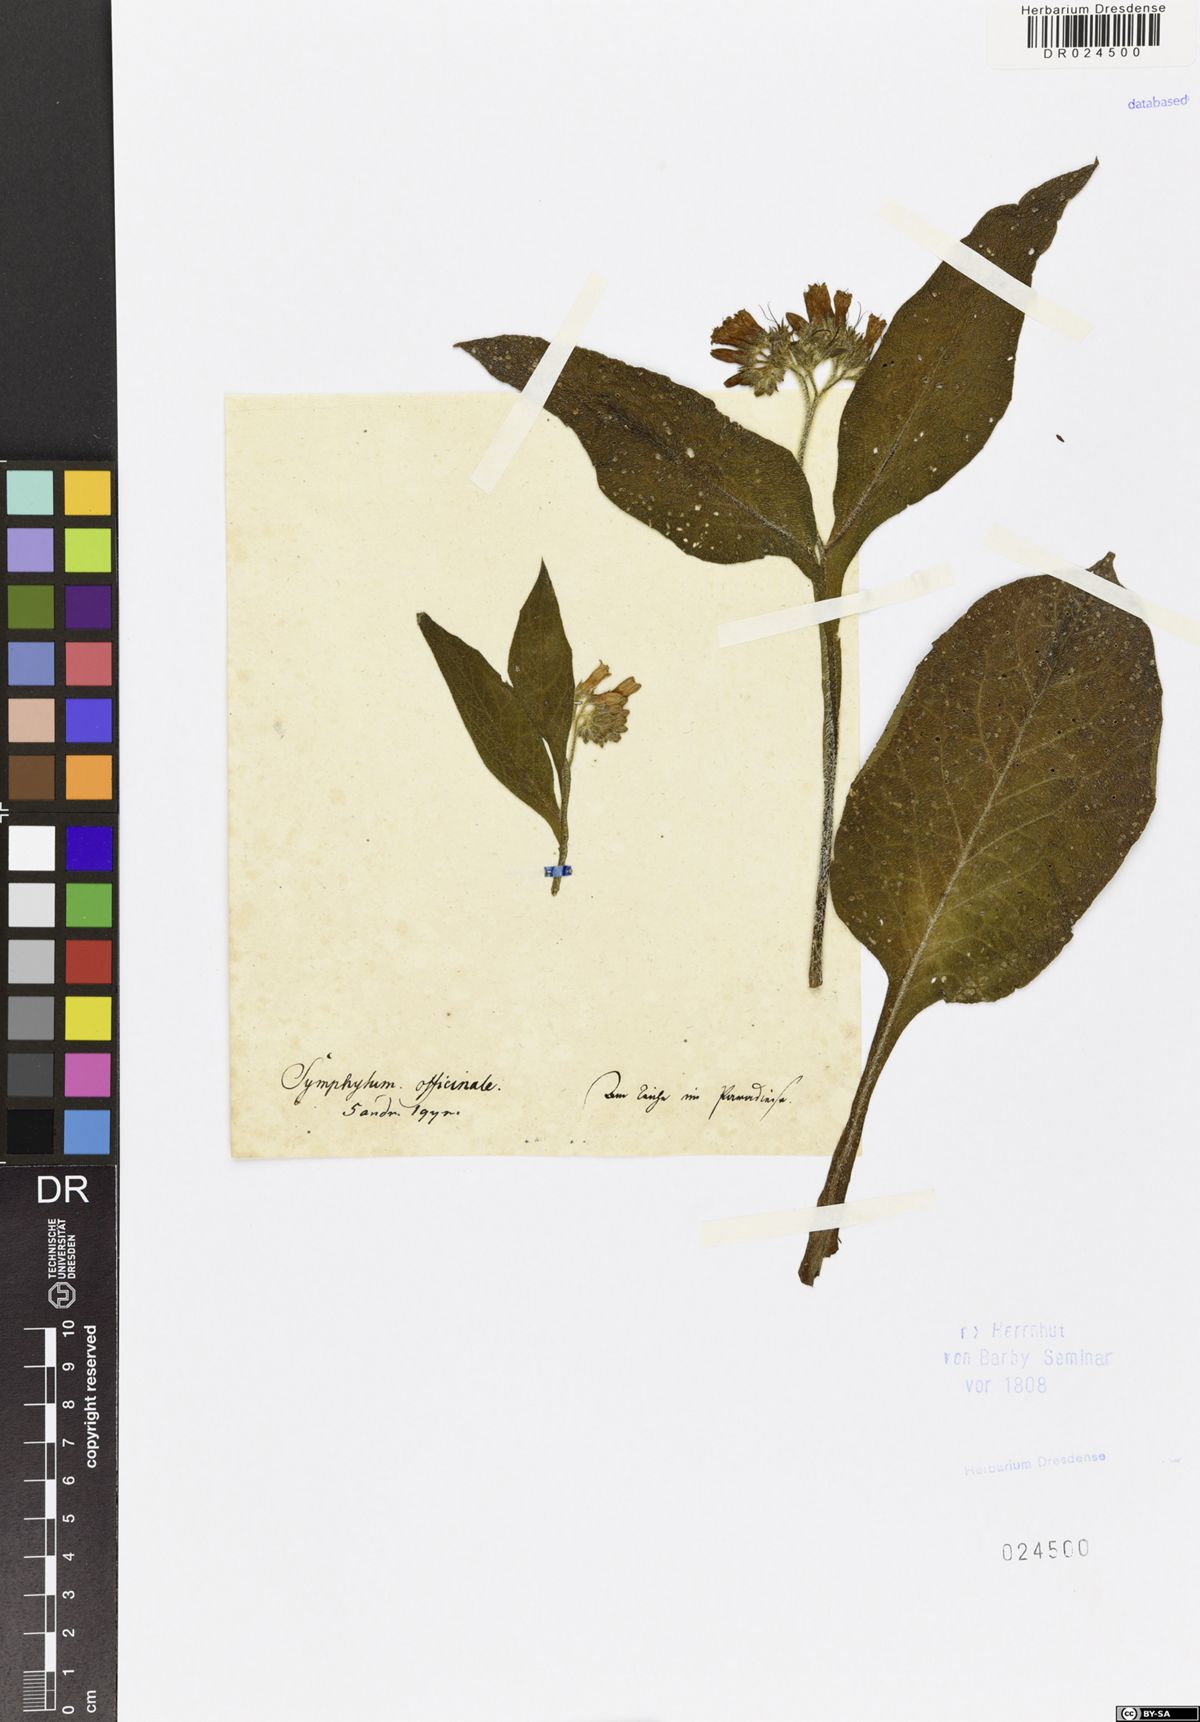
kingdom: Plantae
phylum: Tracheophyta
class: Magnoliopsida
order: Boraginales
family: Boraginaceae
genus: Symphytum
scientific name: Symphytum officinale
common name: Common comfrey
